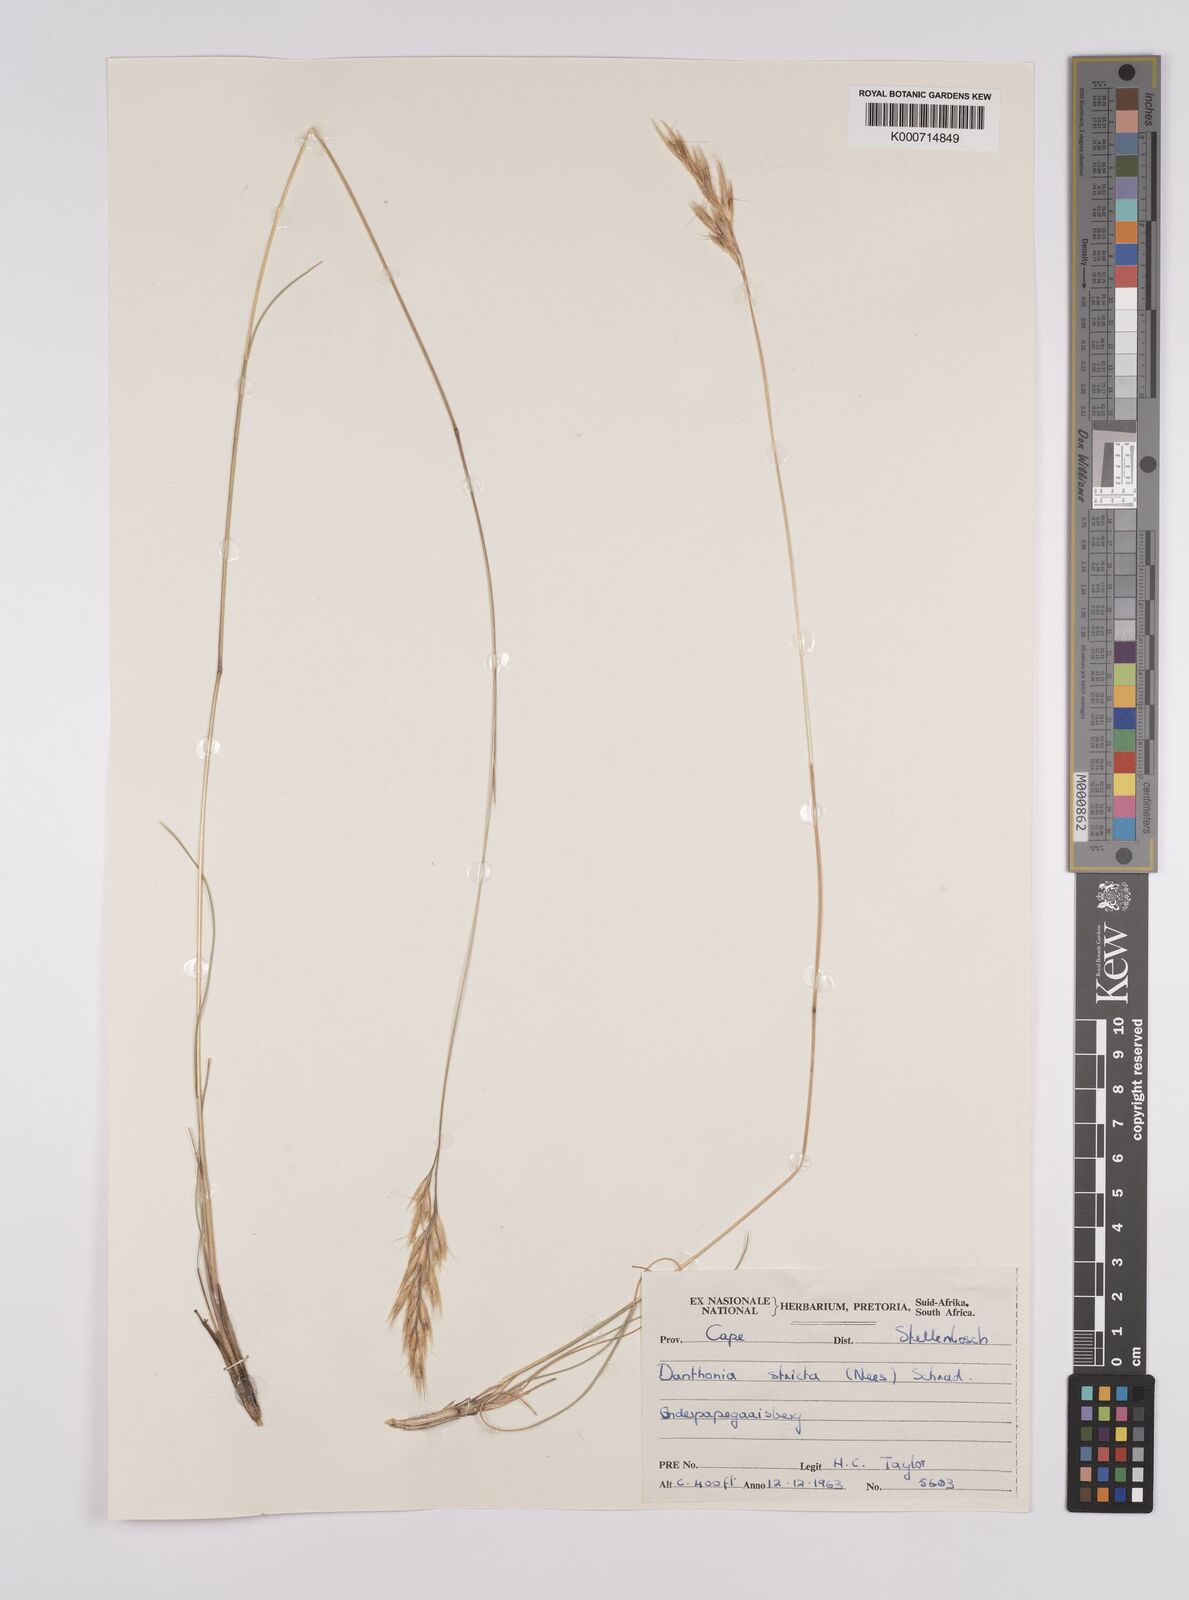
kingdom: Plantae
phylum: Tracheophyta
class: Liliopsida
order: Poales
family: Poaceae
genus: Rytidosperma
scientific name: Rytidosperma
